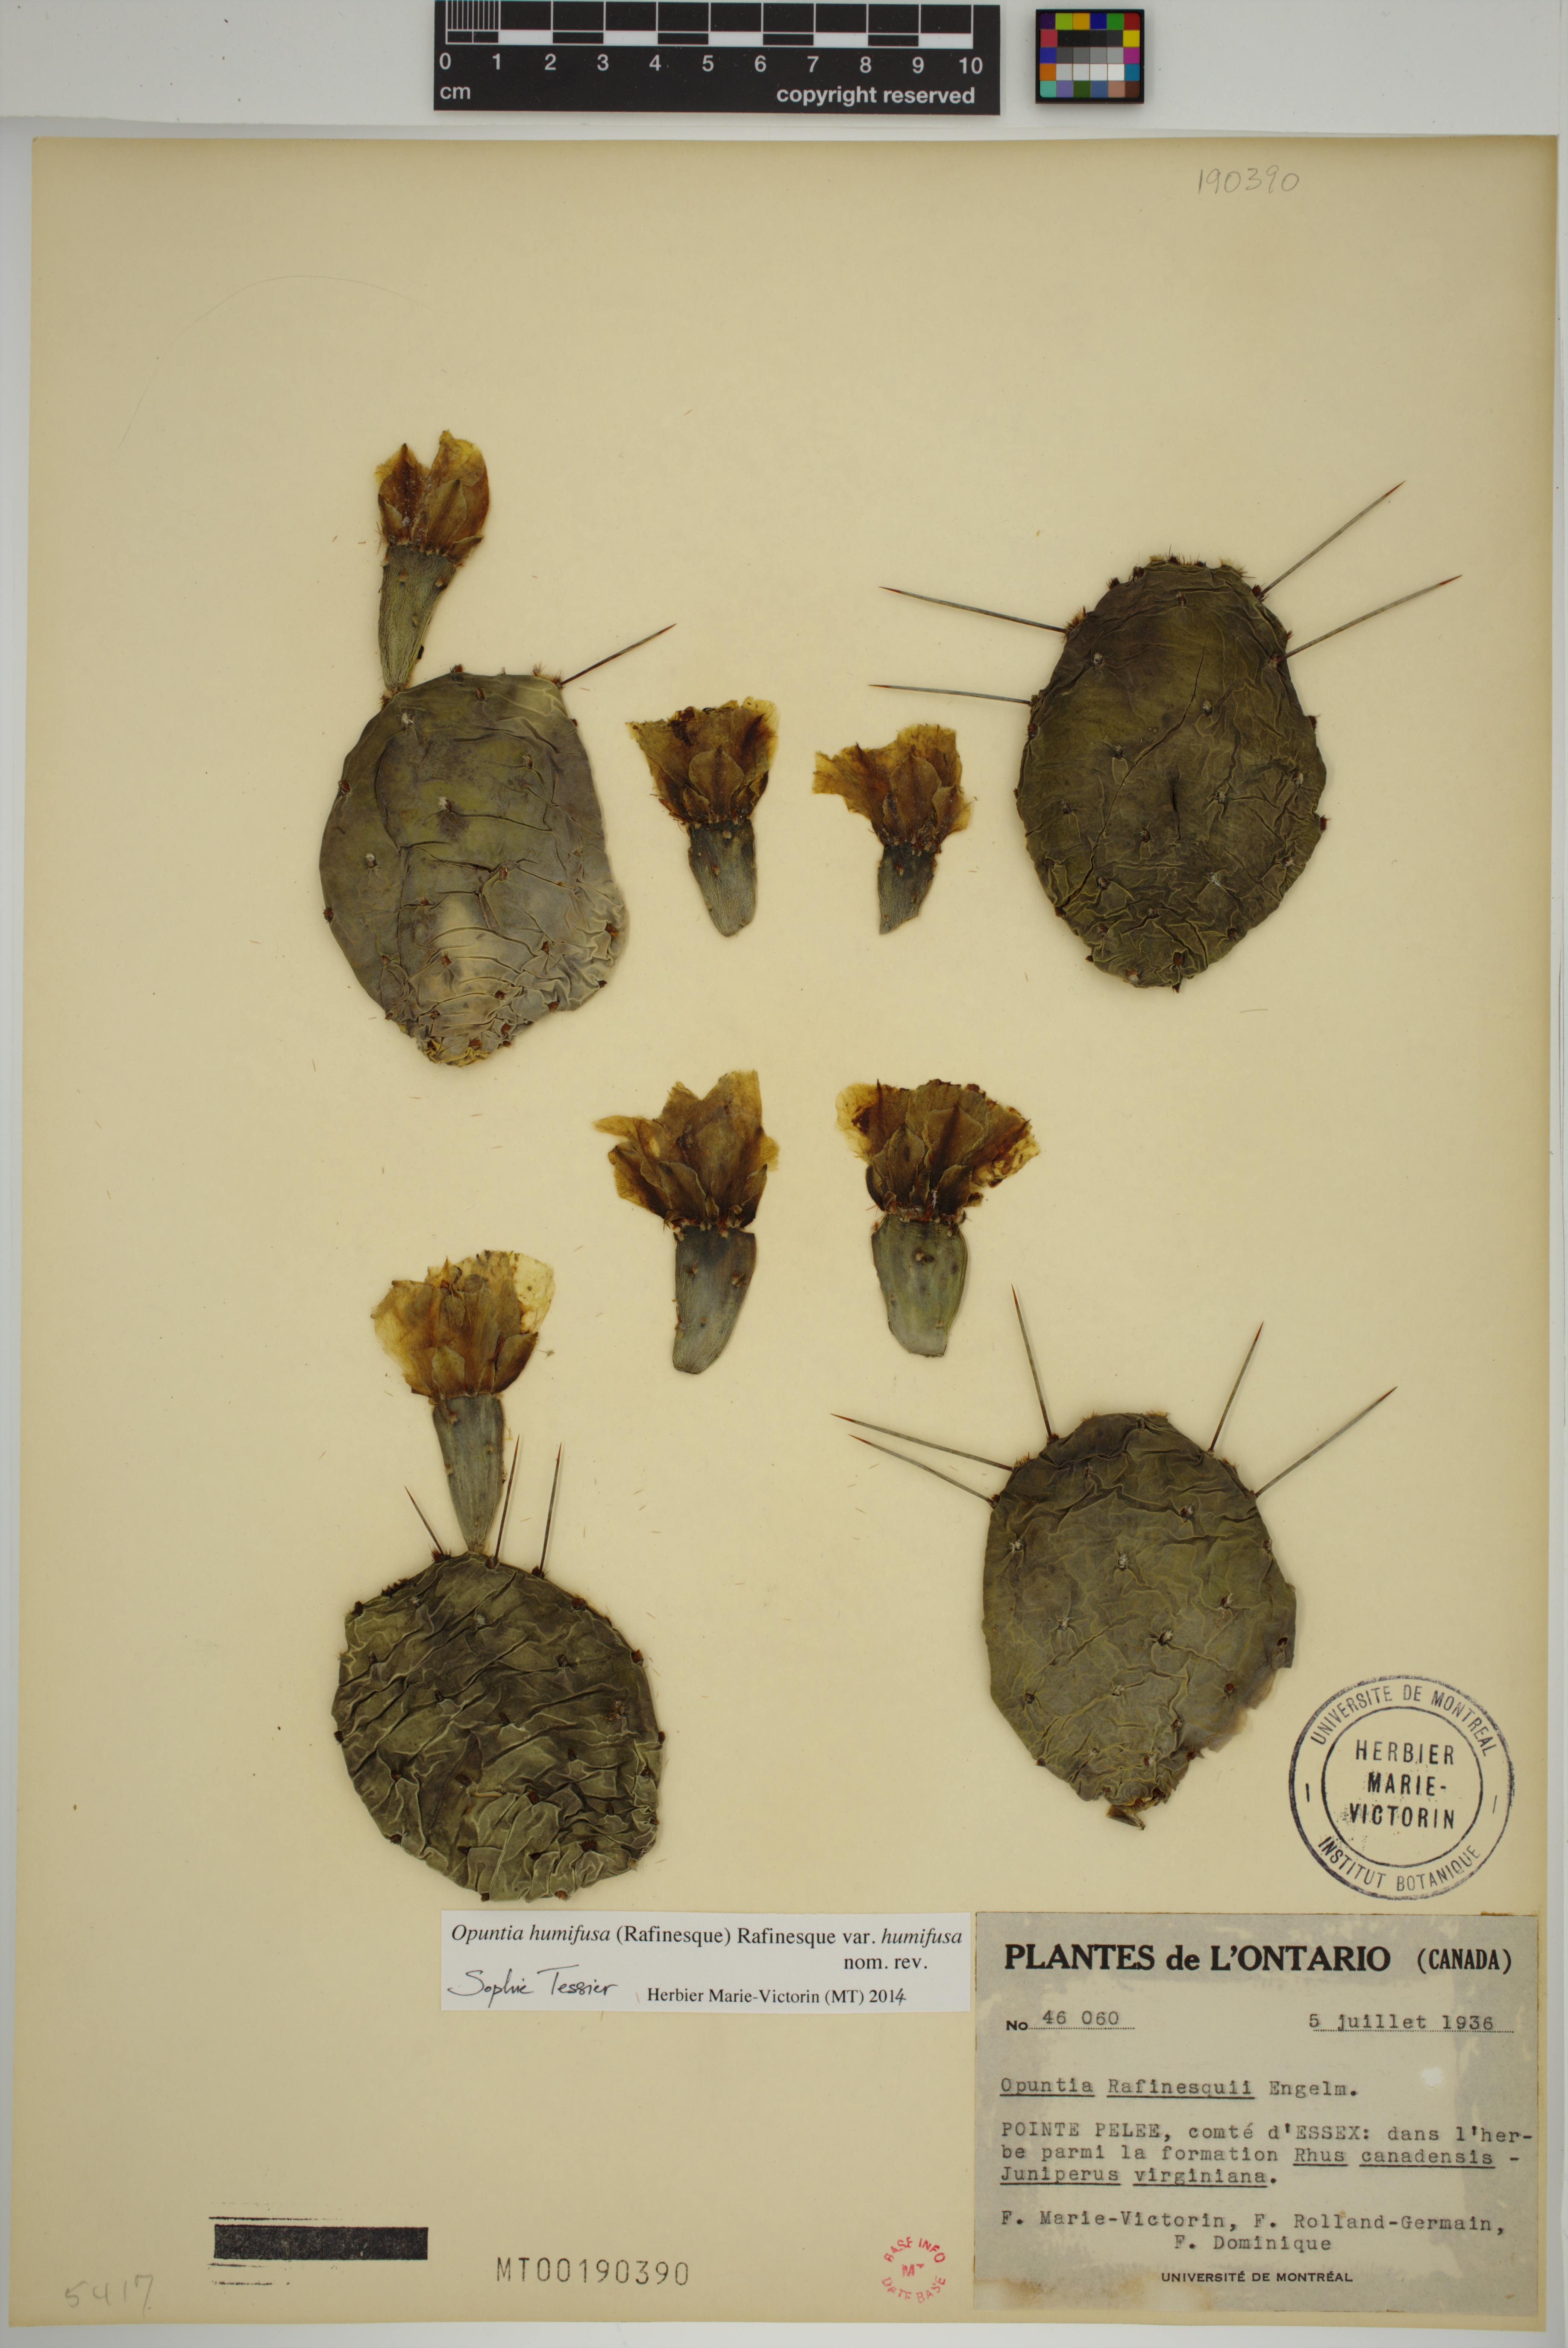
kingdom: Plantae
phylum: Tracheophyta
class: Magnoliopsida
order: Caryophyllales
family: Cactaceae
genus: Opuntia
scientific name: Opuntia humifusa
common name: Eastern prickly-pear
